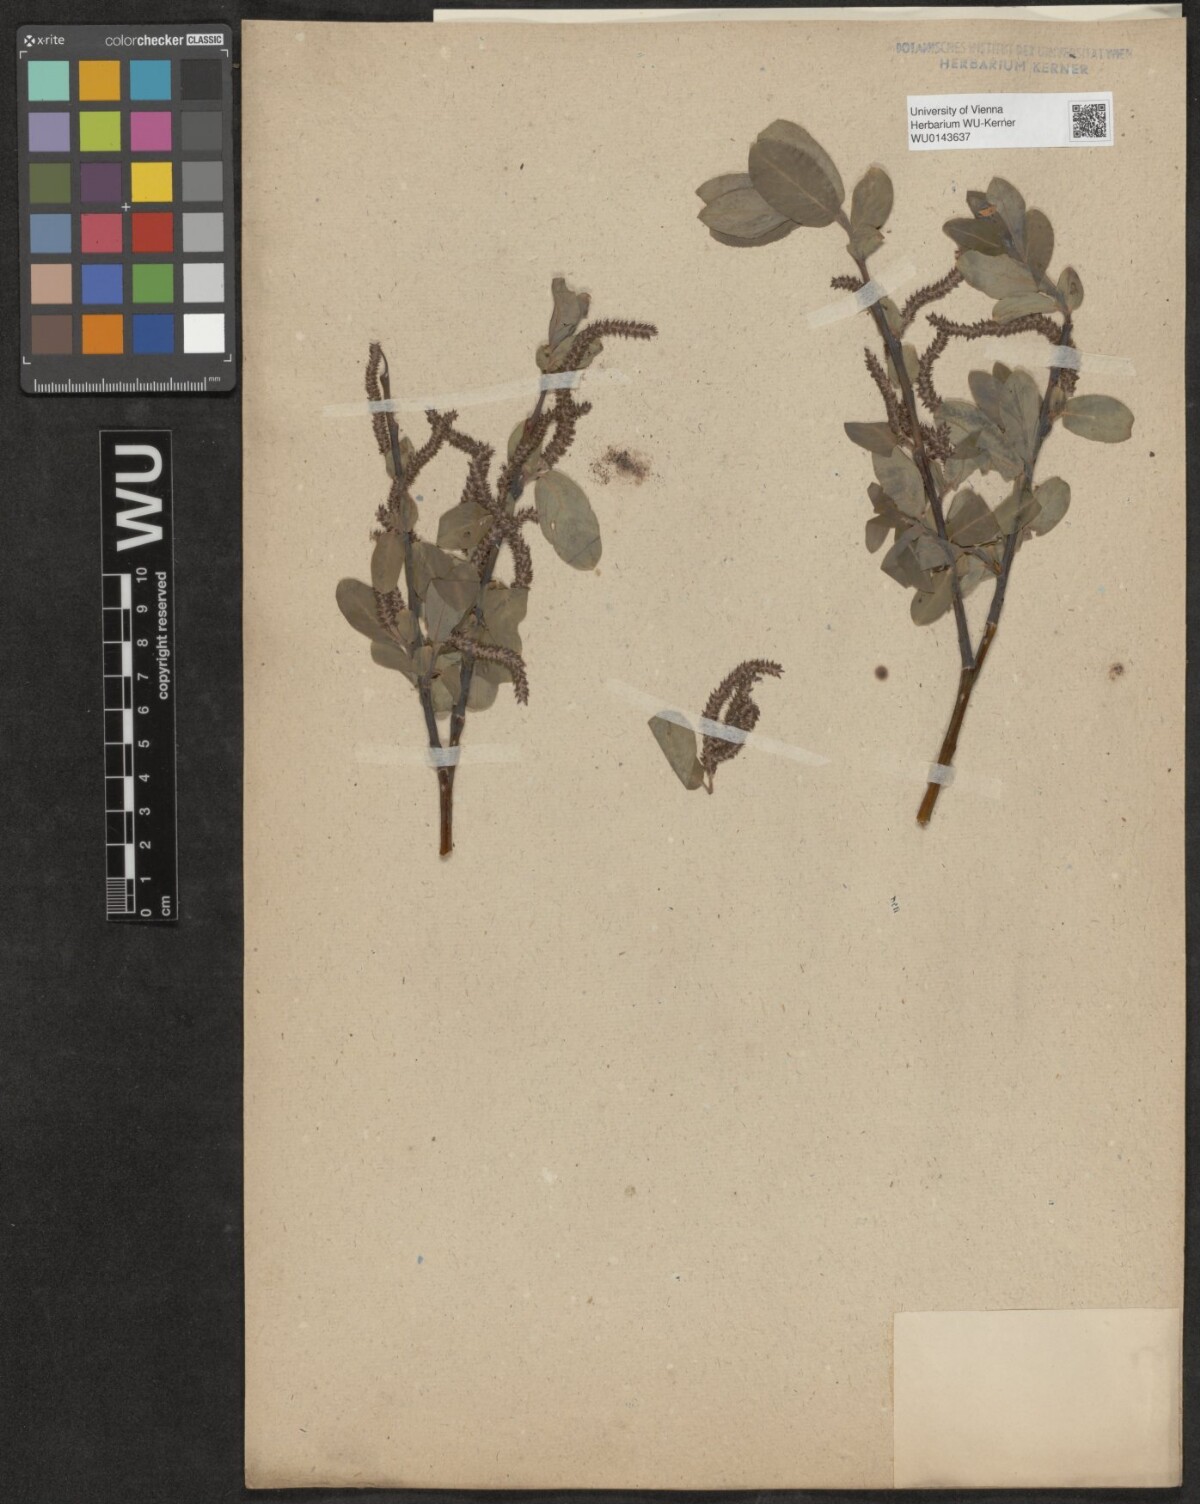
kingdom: Plantae
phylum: Tracheophyta
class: Magnoliopsida
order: Malpighiales
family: Salicaceae
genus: Salix
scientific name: Salix
